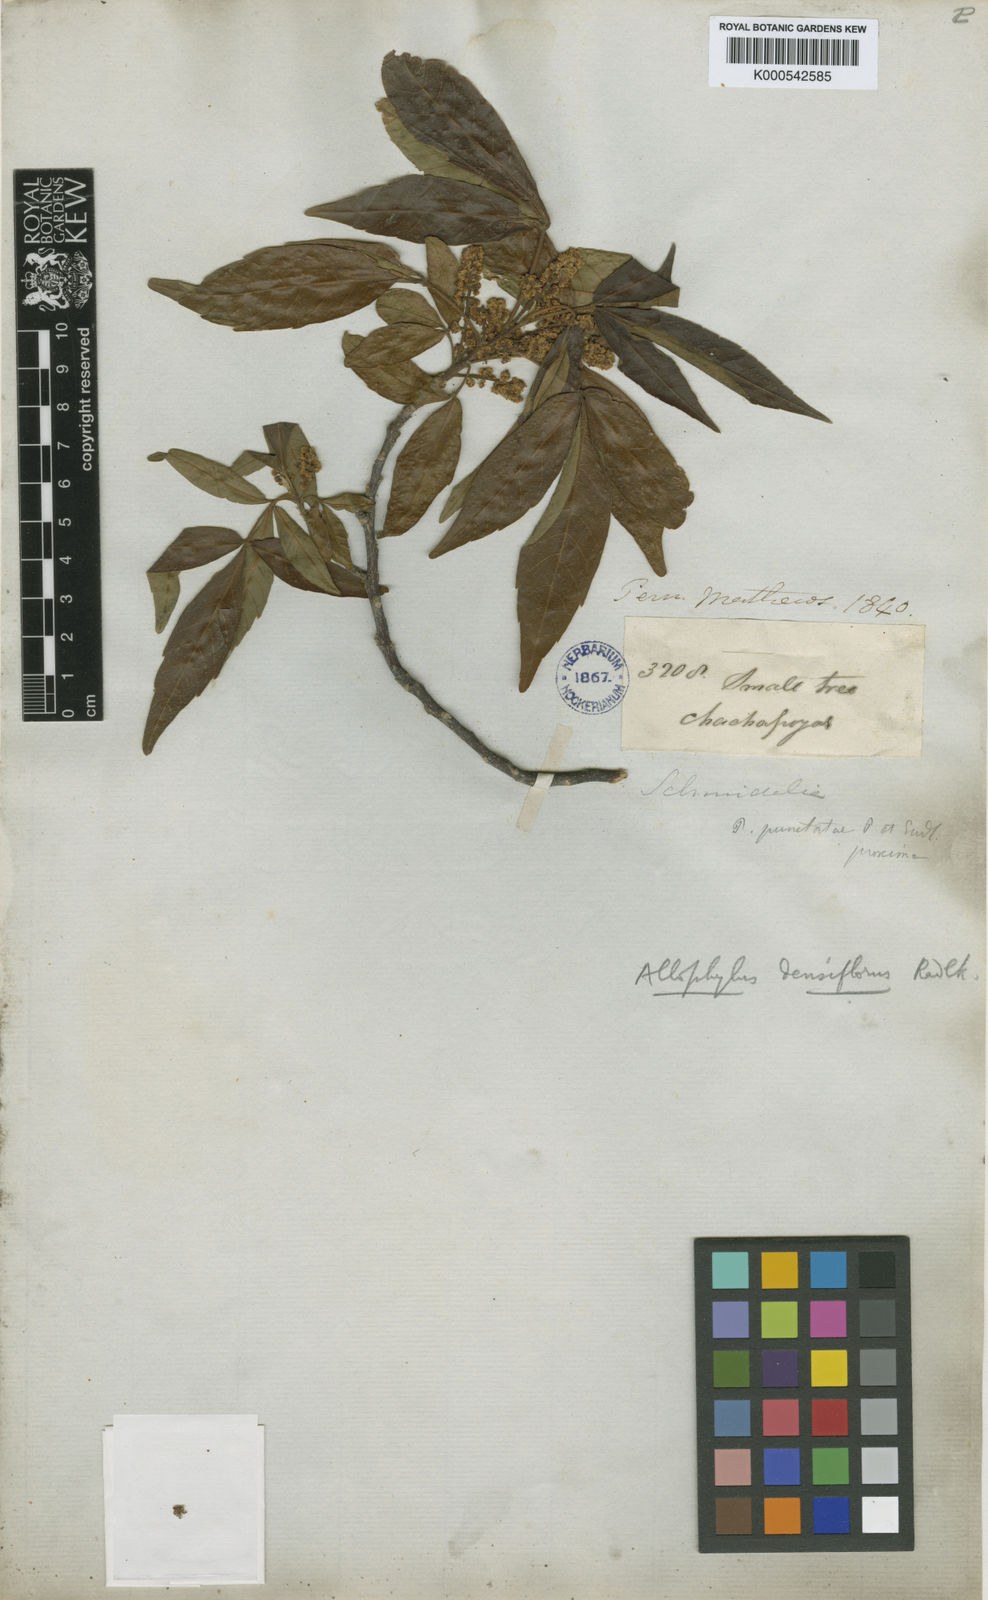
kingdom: Plantae
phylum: Tracheophyta
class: Magnoliopsida
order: Sapindales
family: Sapindaceae
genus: Allophylus
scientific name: Allophylus densiflorus
